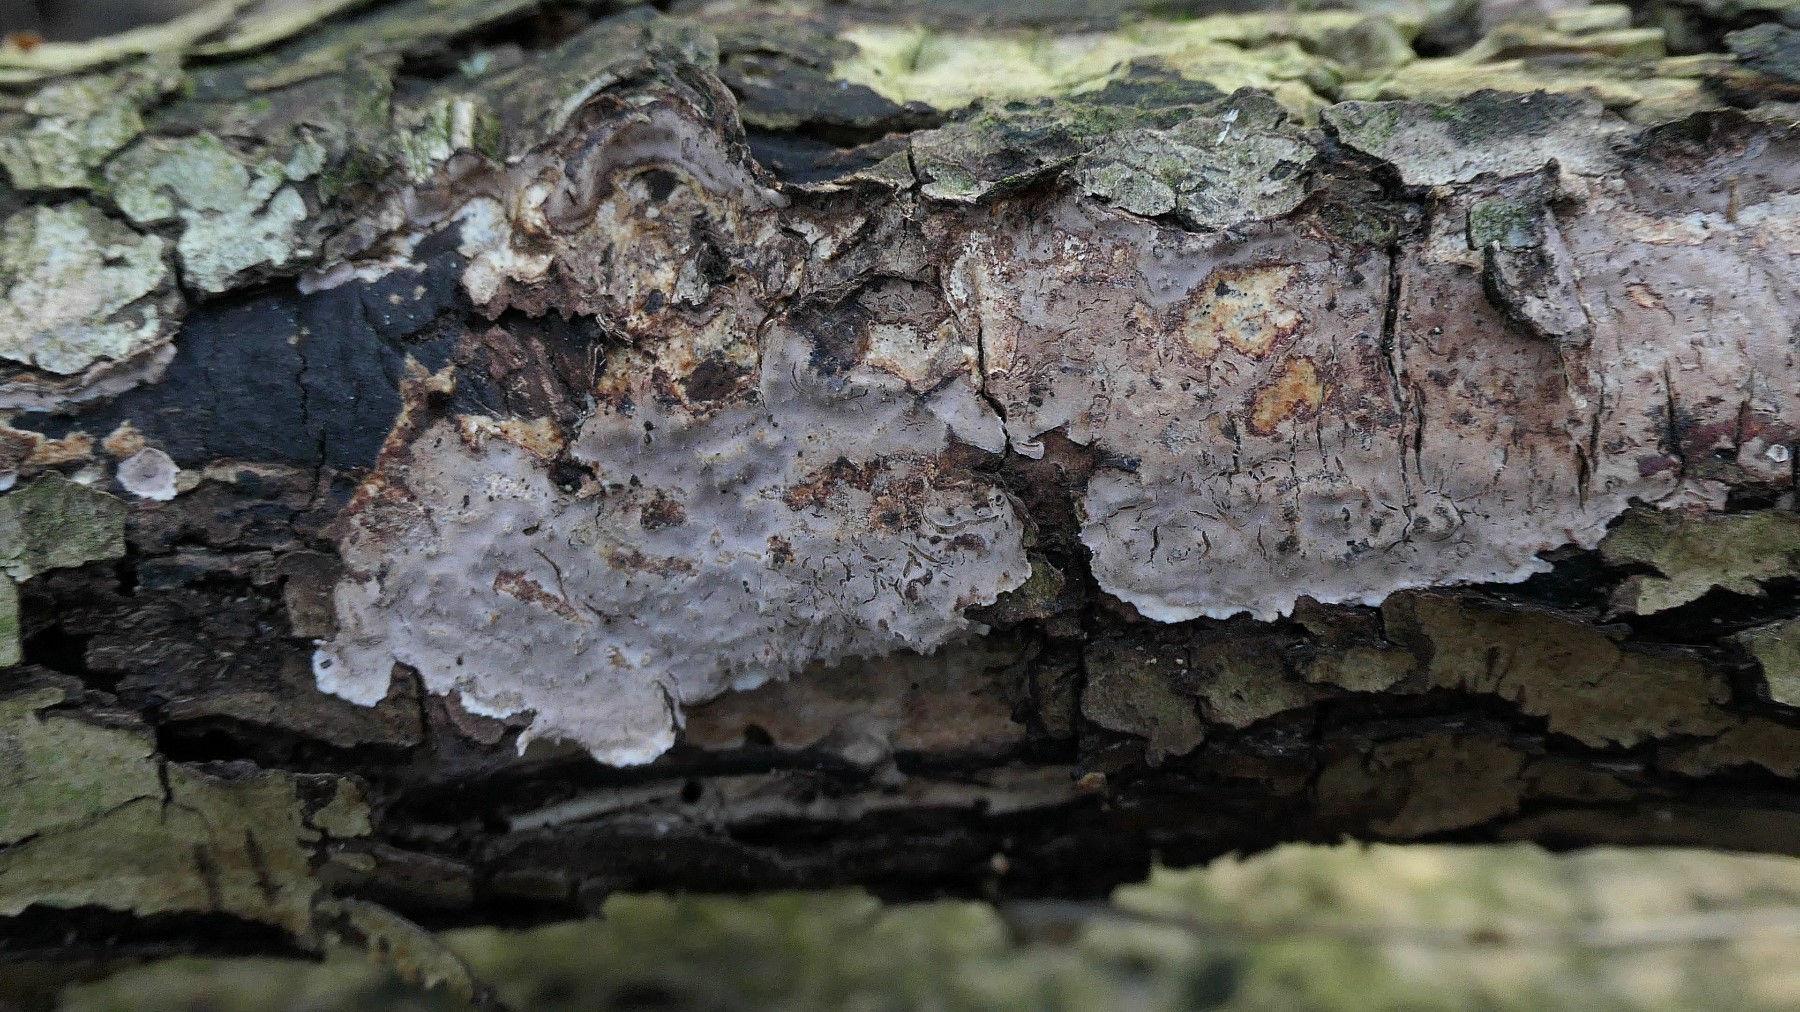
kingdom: Fungi
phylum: Basidiomycota
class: Agaricomycetes
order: Auriculariales
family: Auriculariaceae
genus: Heteroradulum
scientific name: Heteroradulum deglubens
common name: bævreskorpe
